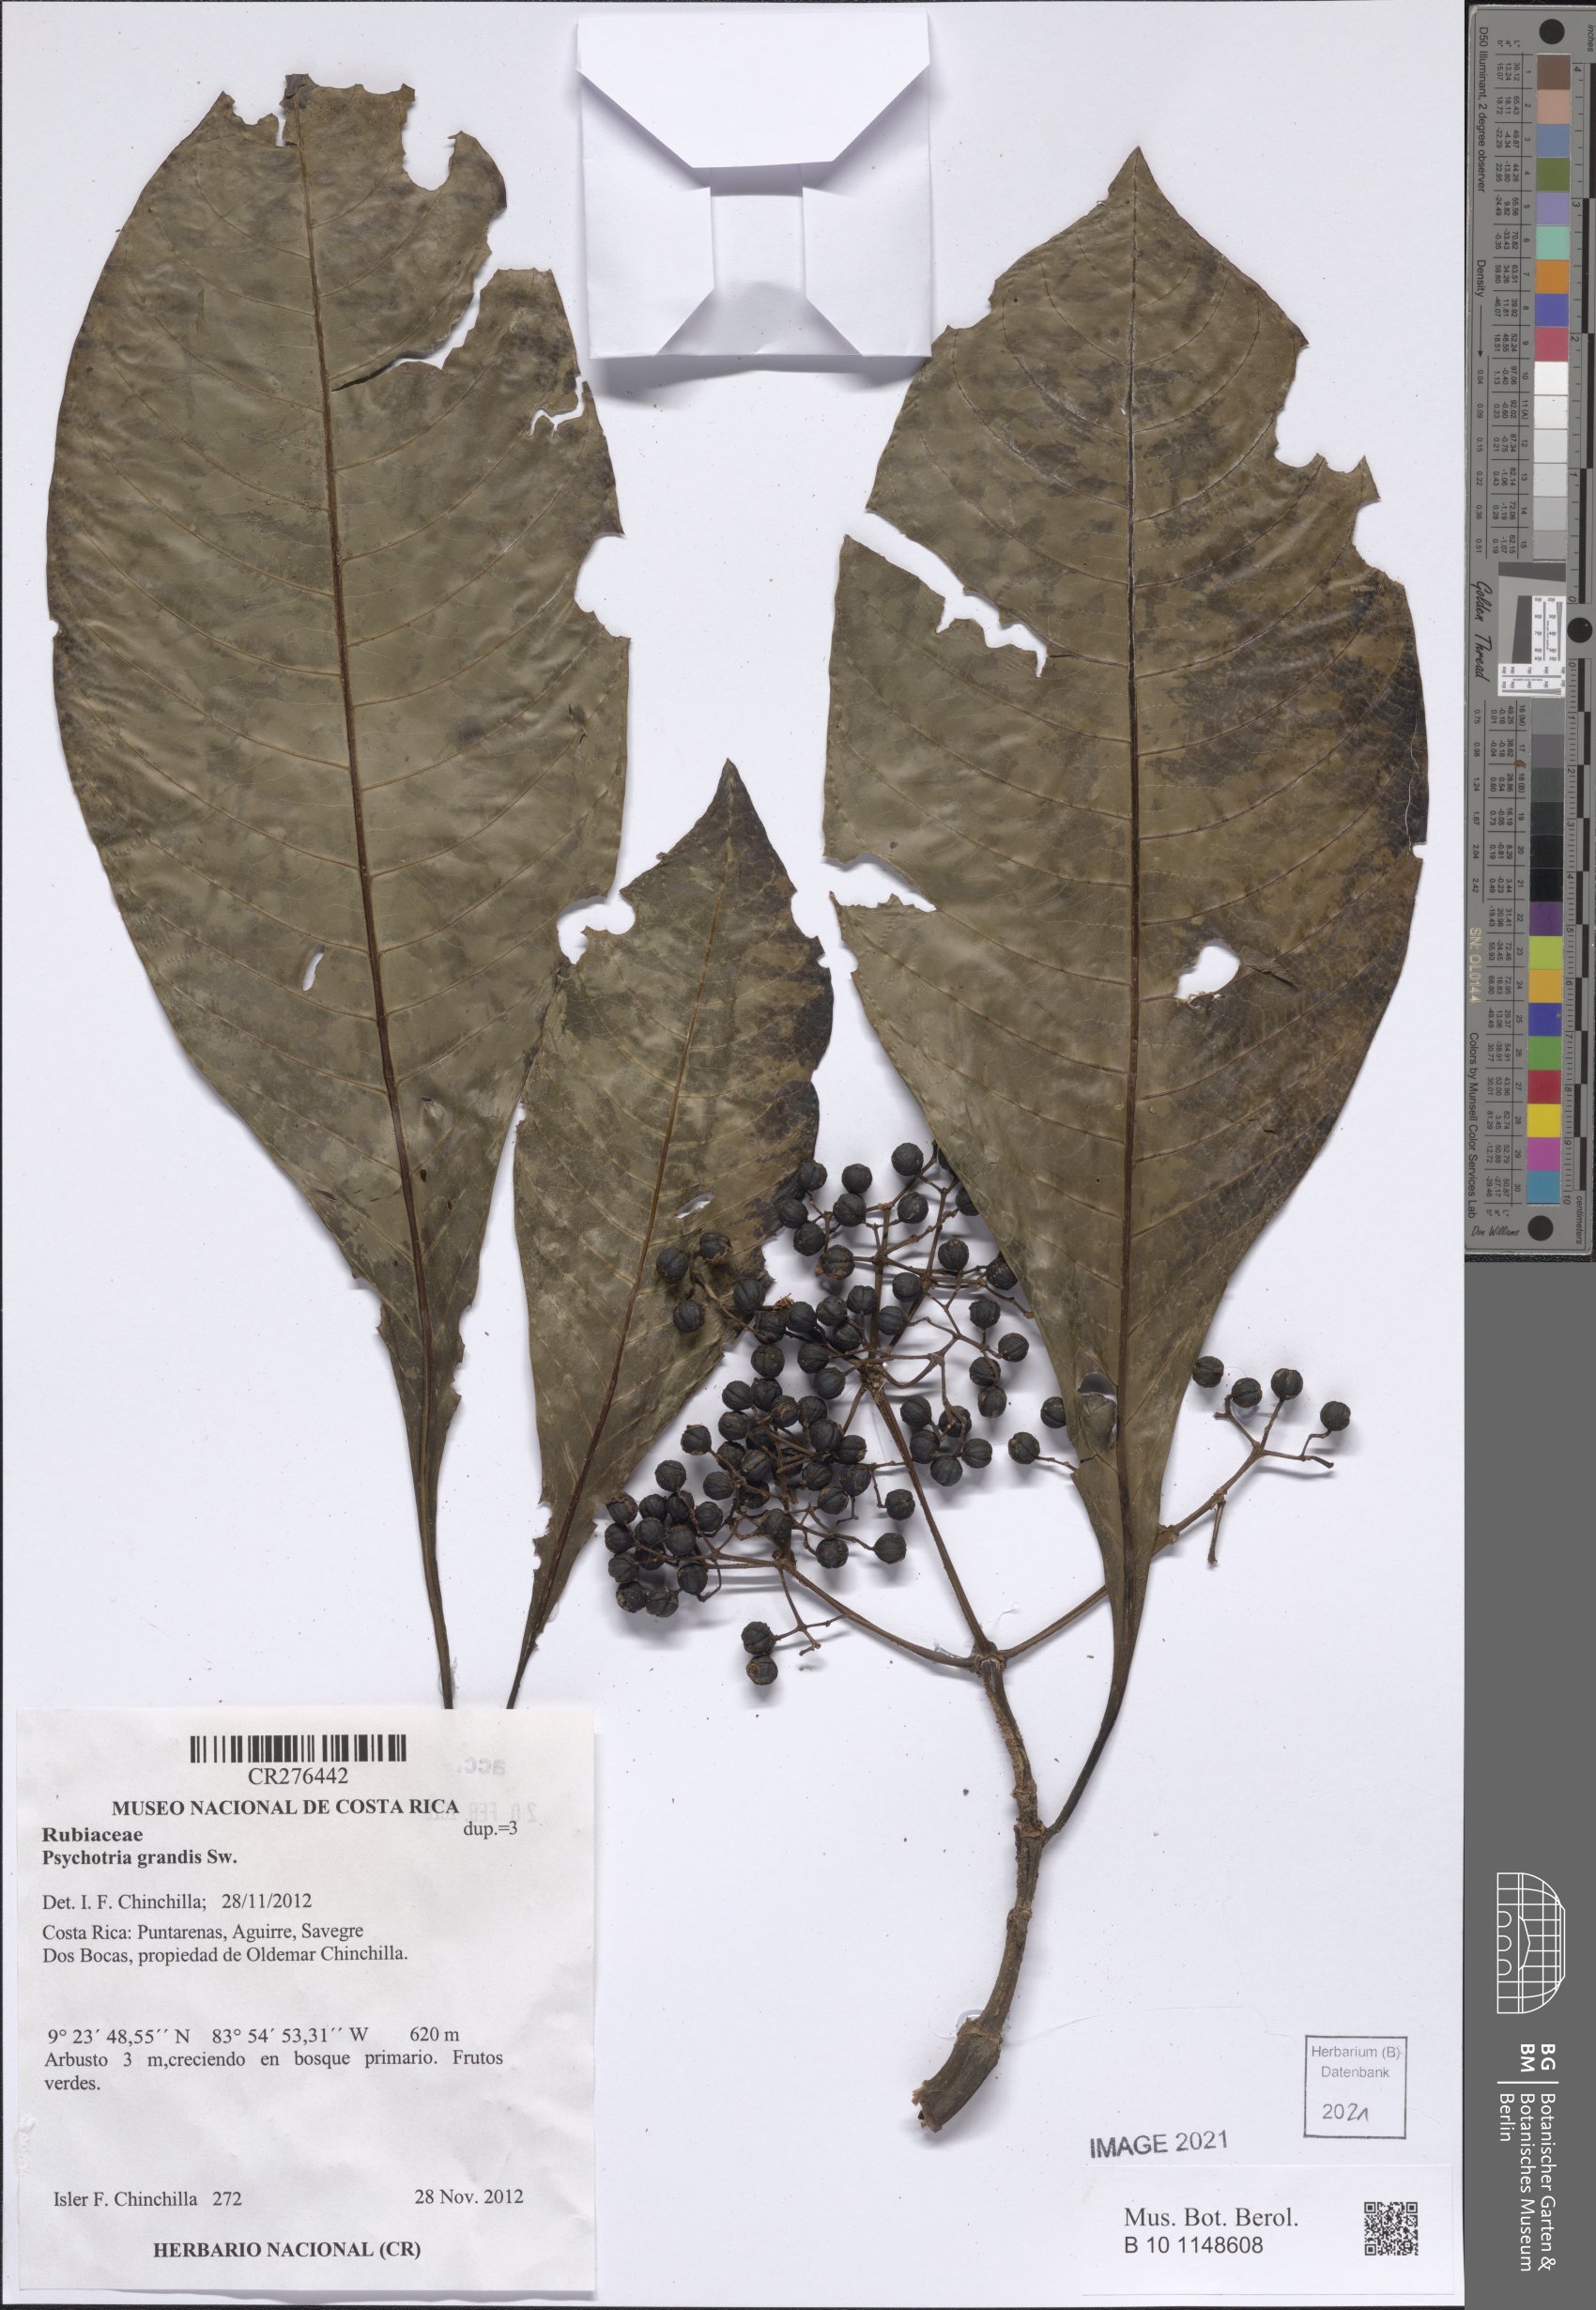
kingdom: Plantae
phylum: Tracheophyta
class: Magnoliopsida
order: Gentianales
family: Rubiaceae
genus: Psychotria
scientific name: Psychotria grandis
